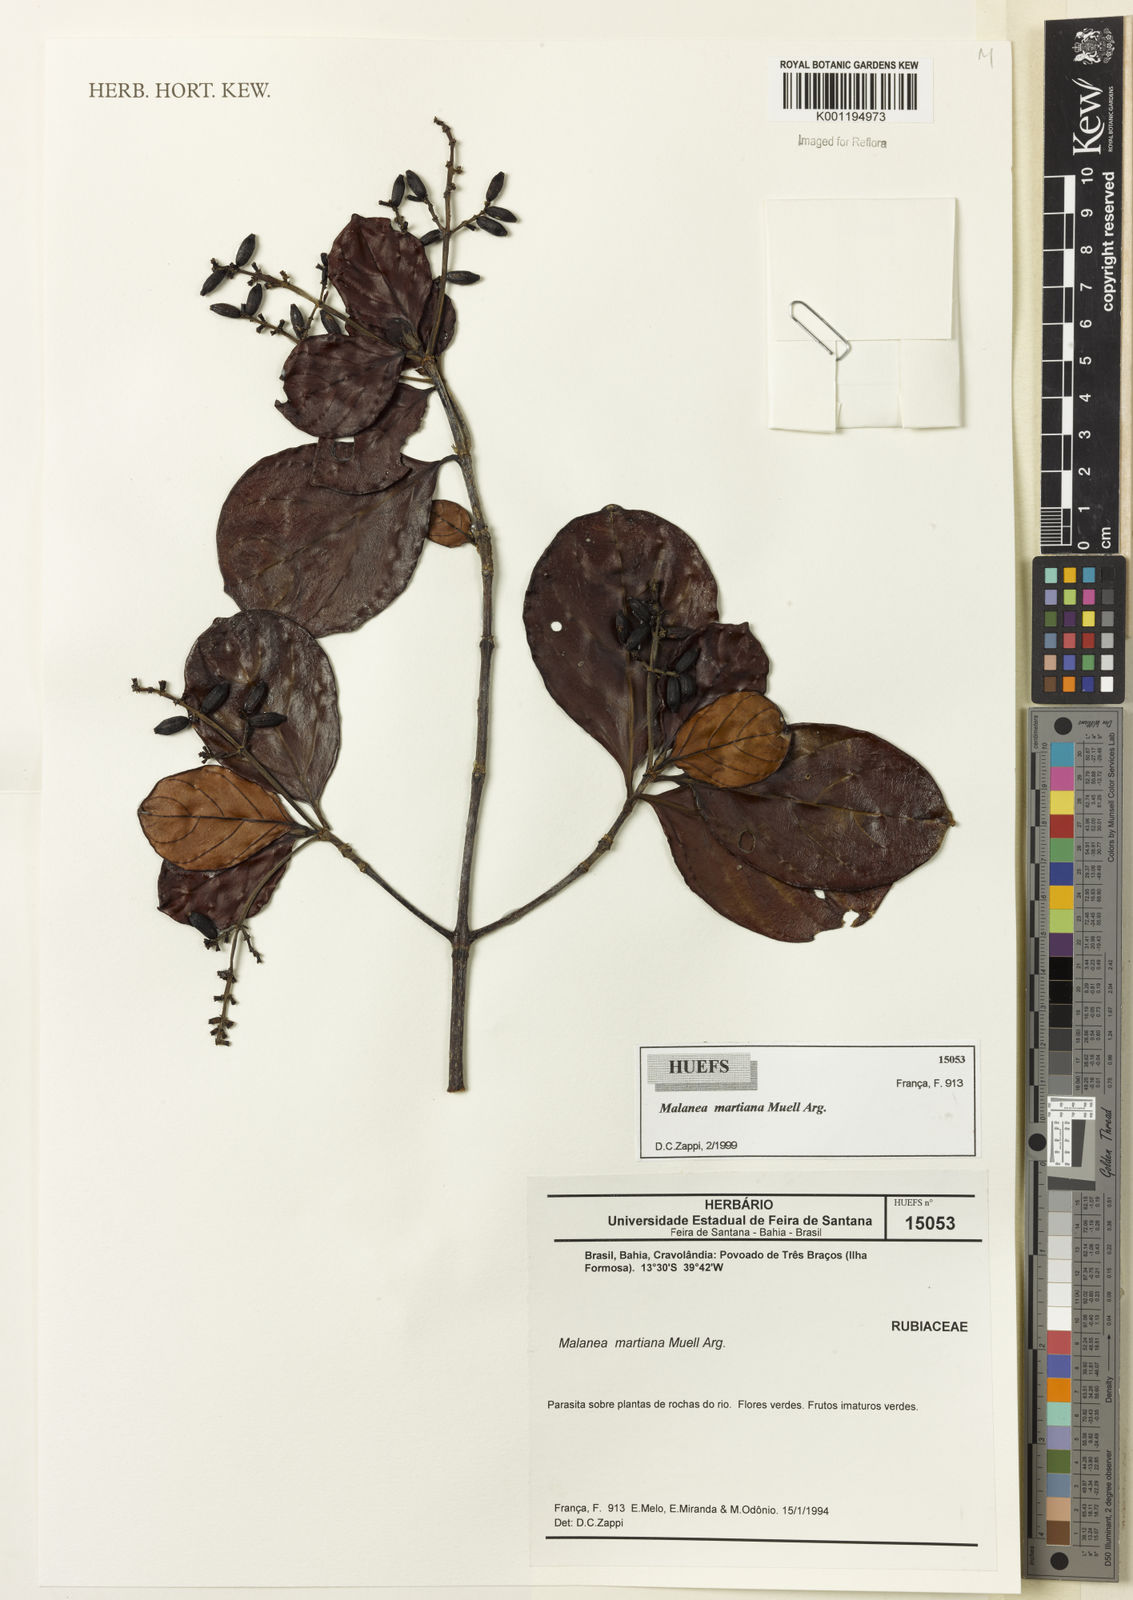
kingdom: Plantae
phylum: Tracheophyta
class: Magnoliopsida
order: Gentianales
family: Rubiaceae
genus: Malanea
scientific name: Malanea
